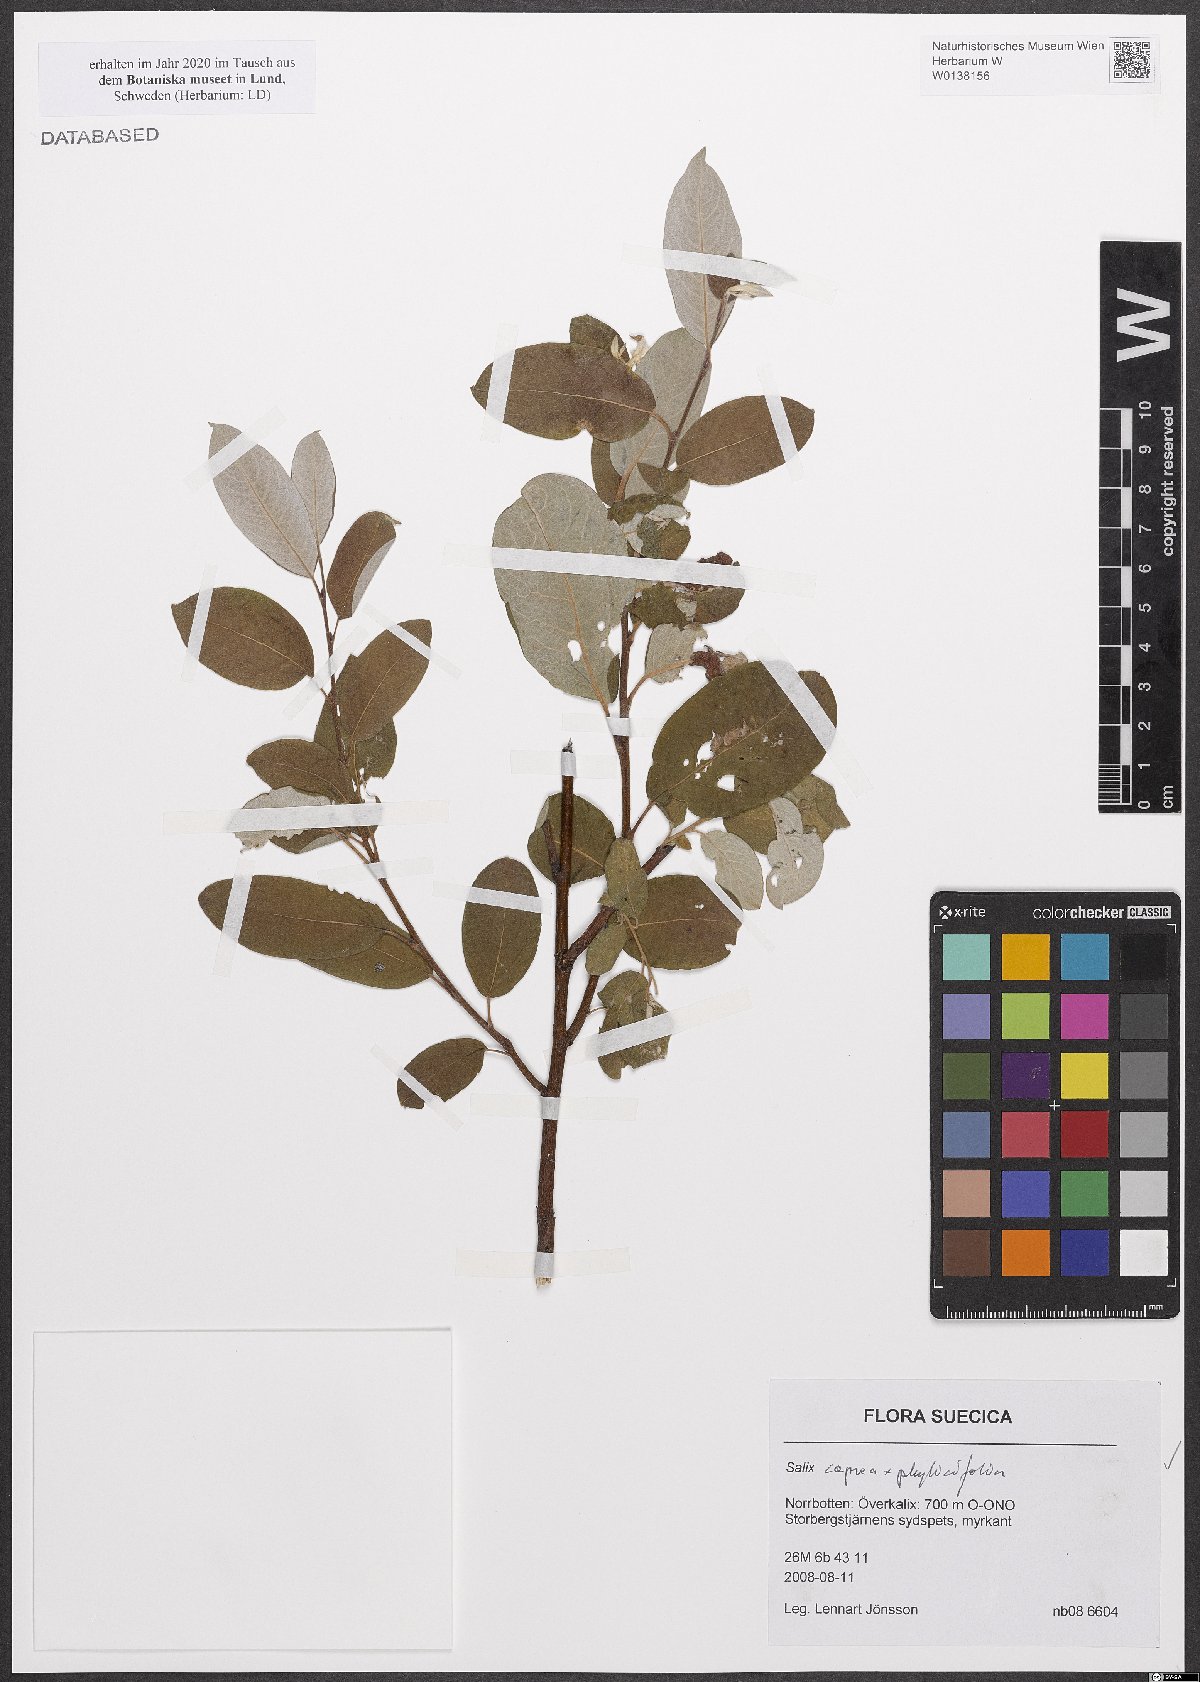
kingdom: Plantae
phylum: Tracheophyta
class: Magnoliopsida
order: Malpighiales
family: Salicaceae
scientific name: Salicaceae
